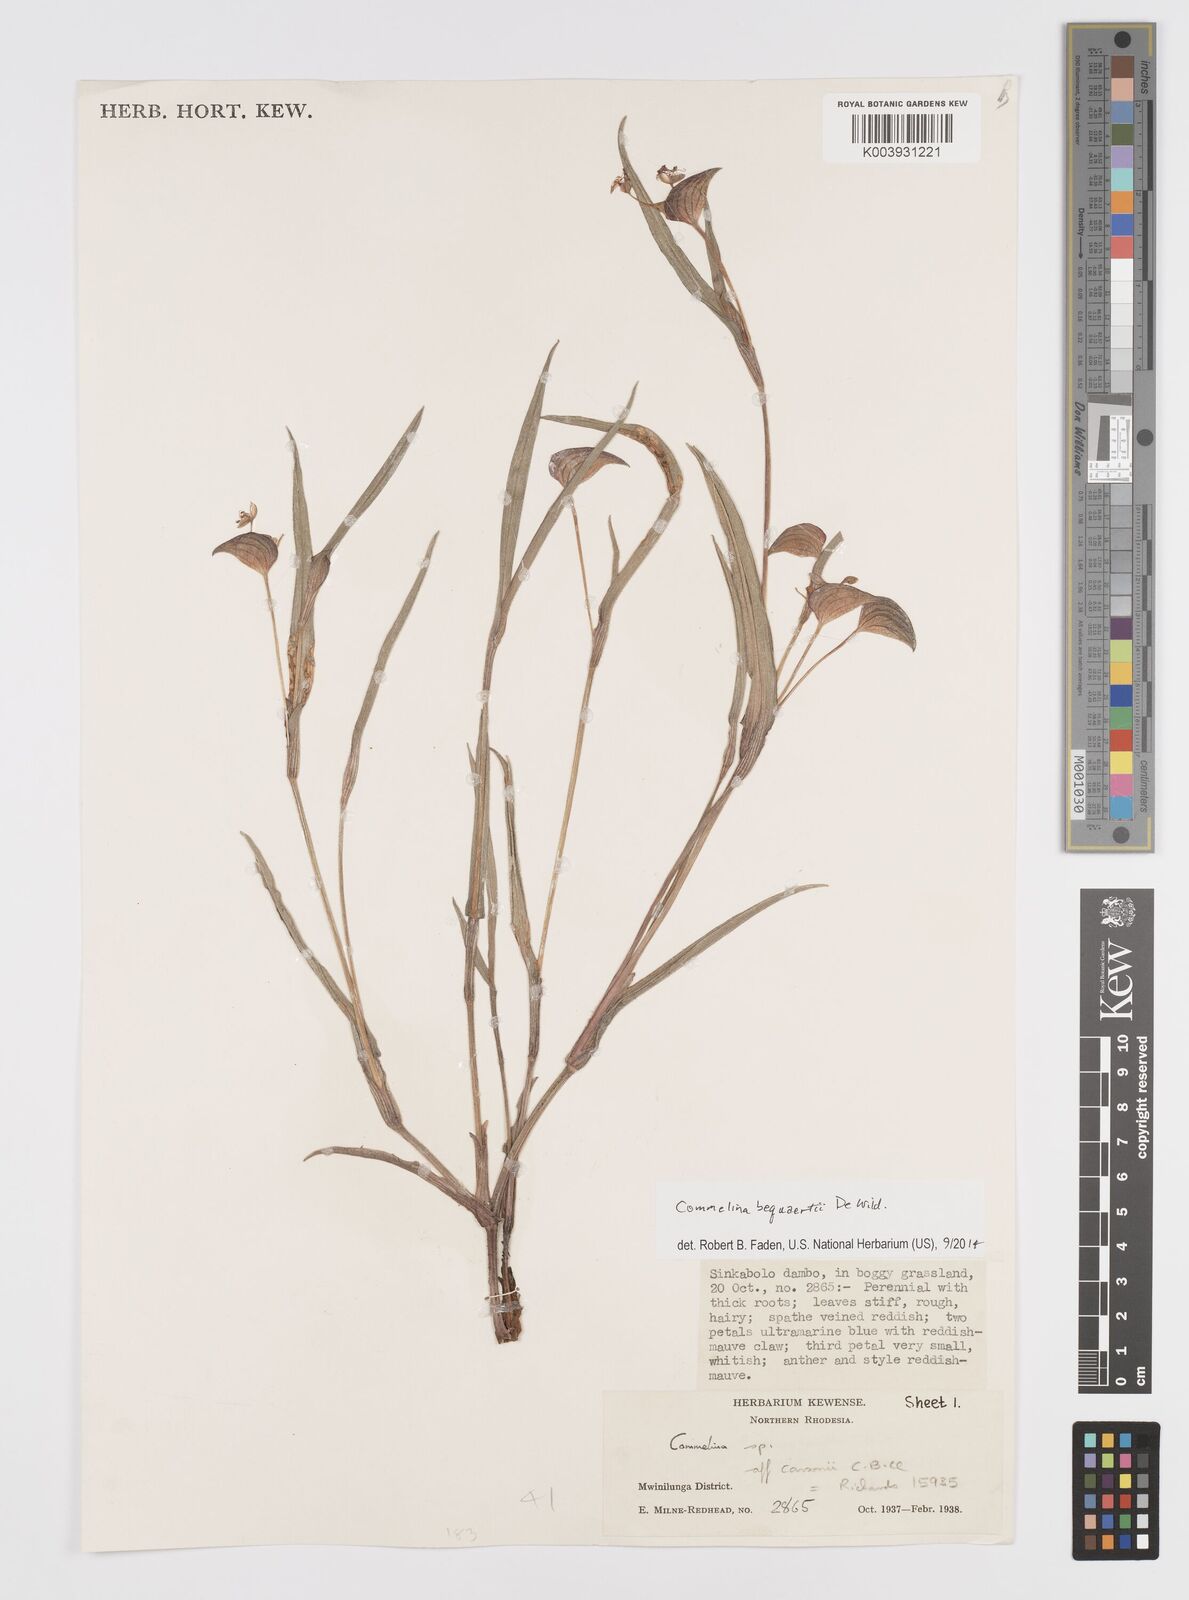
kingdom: Plantae
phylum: Tracheophyta
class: Liliopsida
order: Commelinales
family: Commelinaceae
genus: Commelina
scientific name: Commelina bequaertii
